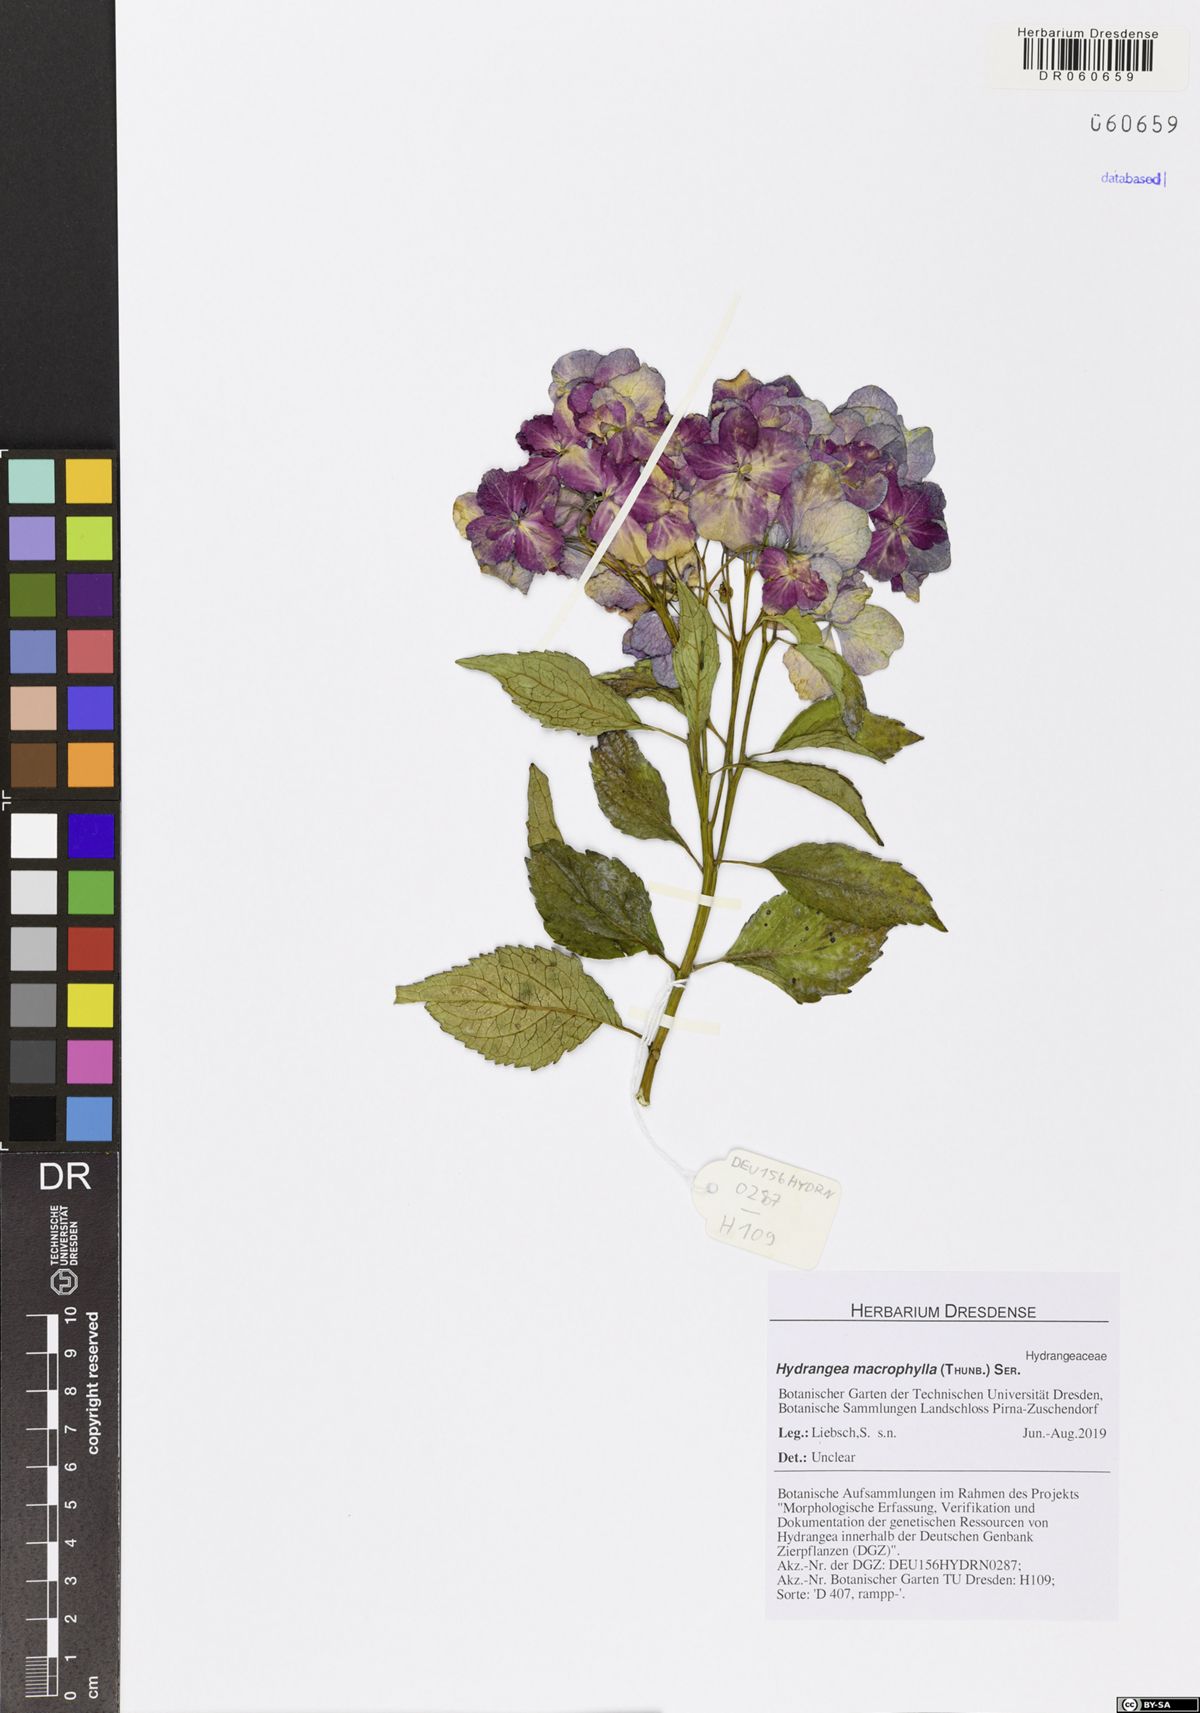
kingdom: Plantae
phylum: Tracheophyta
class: Magnoliopsida
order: Cornales
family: Hydrangeaceae
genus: Hydrangea
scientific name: Hydrangea macrophylla
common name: Hydrangea
